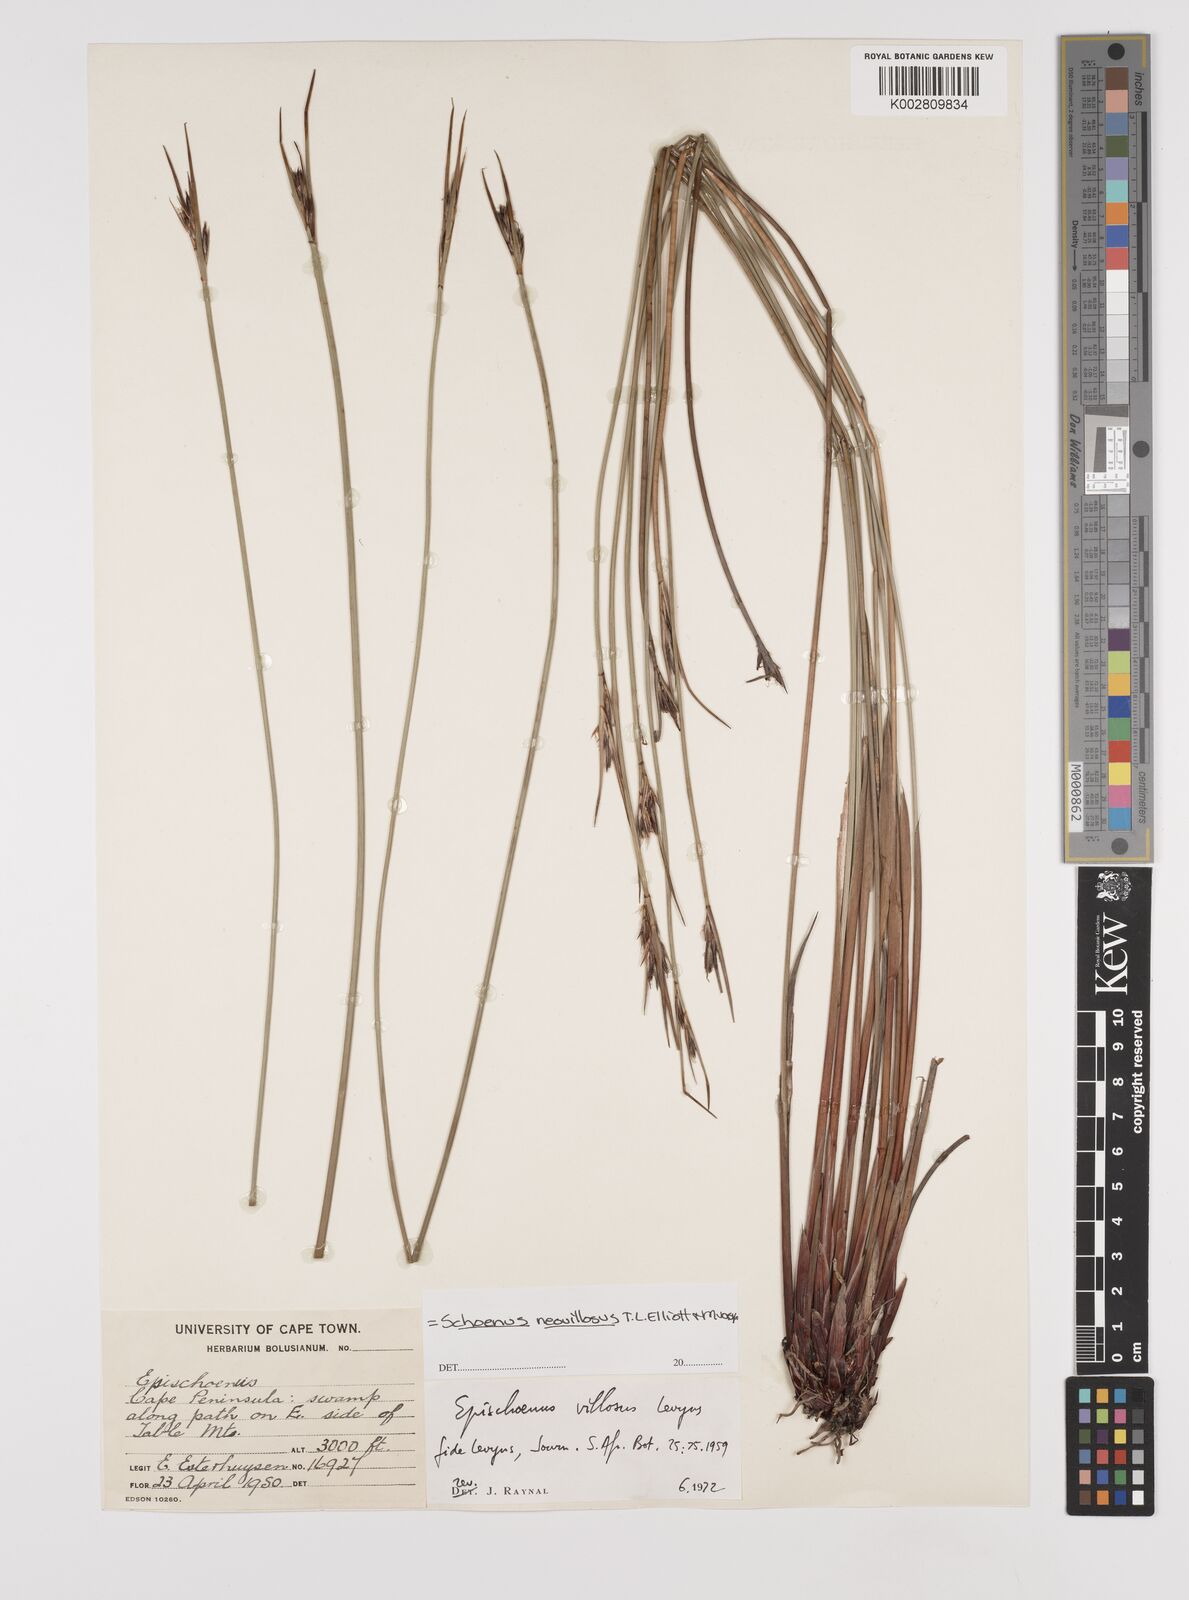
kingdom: Plantae
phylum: Tracheophyta
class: Liliopsida
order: Poales
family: Cyperaceae
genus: Schoenus
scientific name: Schoenus villosus
